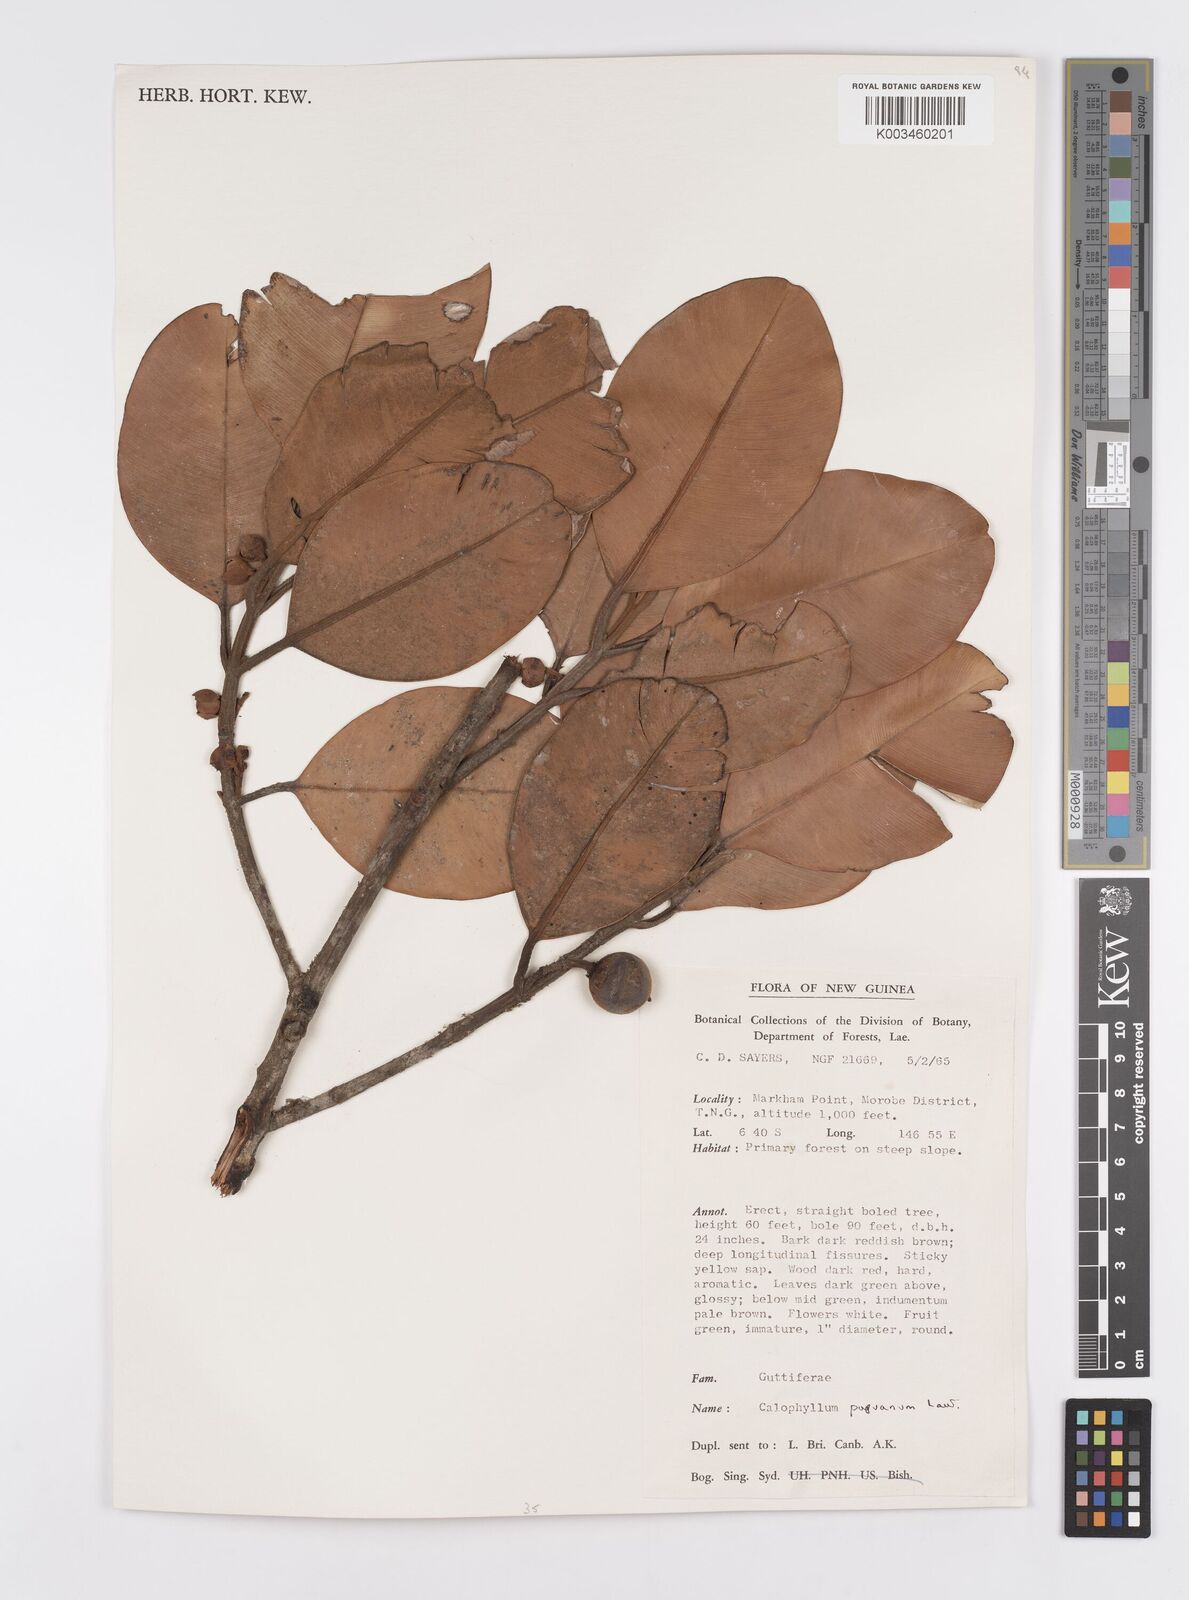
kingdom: Plantae
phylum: Tracheophyta
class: Magnoliopsida
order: Malpighiales
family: Calophyllaceae
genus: Calophyllum
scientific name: Calophyllum papuanum
